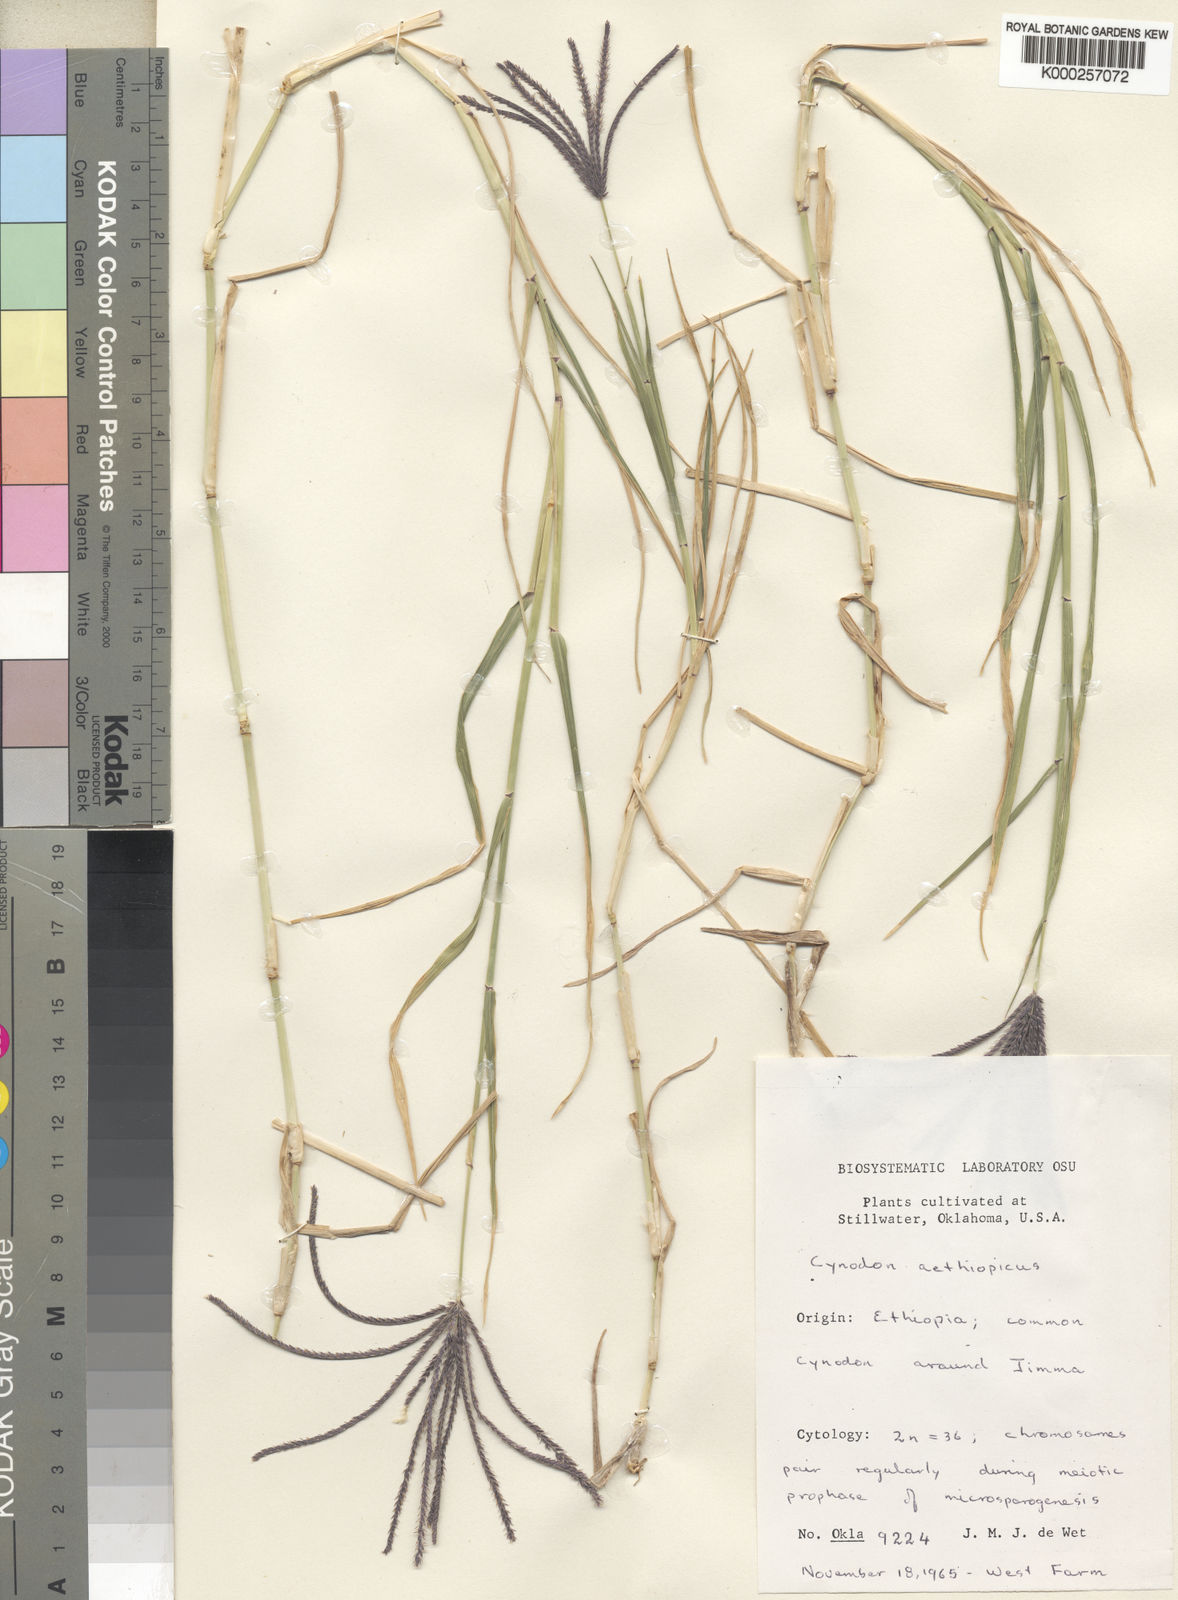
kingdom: Plantae
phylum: Tracheophyta
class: Liliopsida
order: Poales
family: Poaceae
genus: Cynodon
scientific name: Cynodon aethiopicus
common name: Ethiopian dogstooth grass
